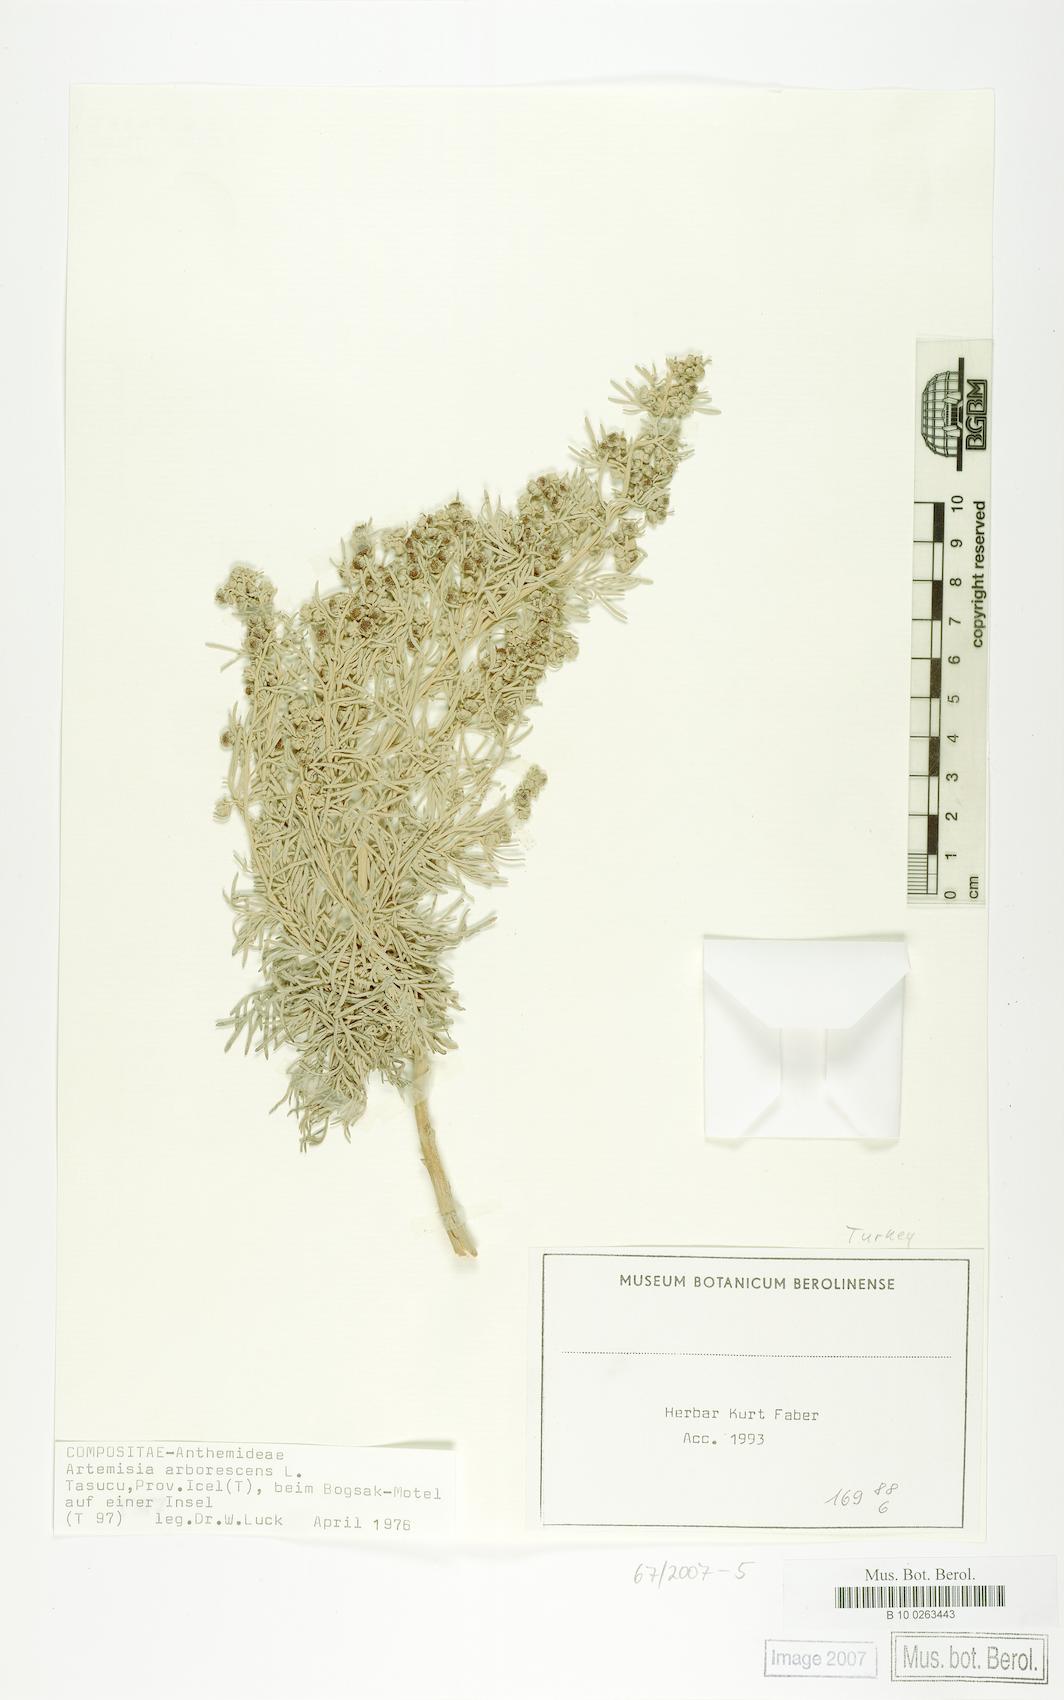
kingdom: Plantae
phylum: Tracheophyta
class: Magnoliopsida
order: Asterales
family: Asteraceae
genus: Artemisia
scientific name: Artemisia arborescens
